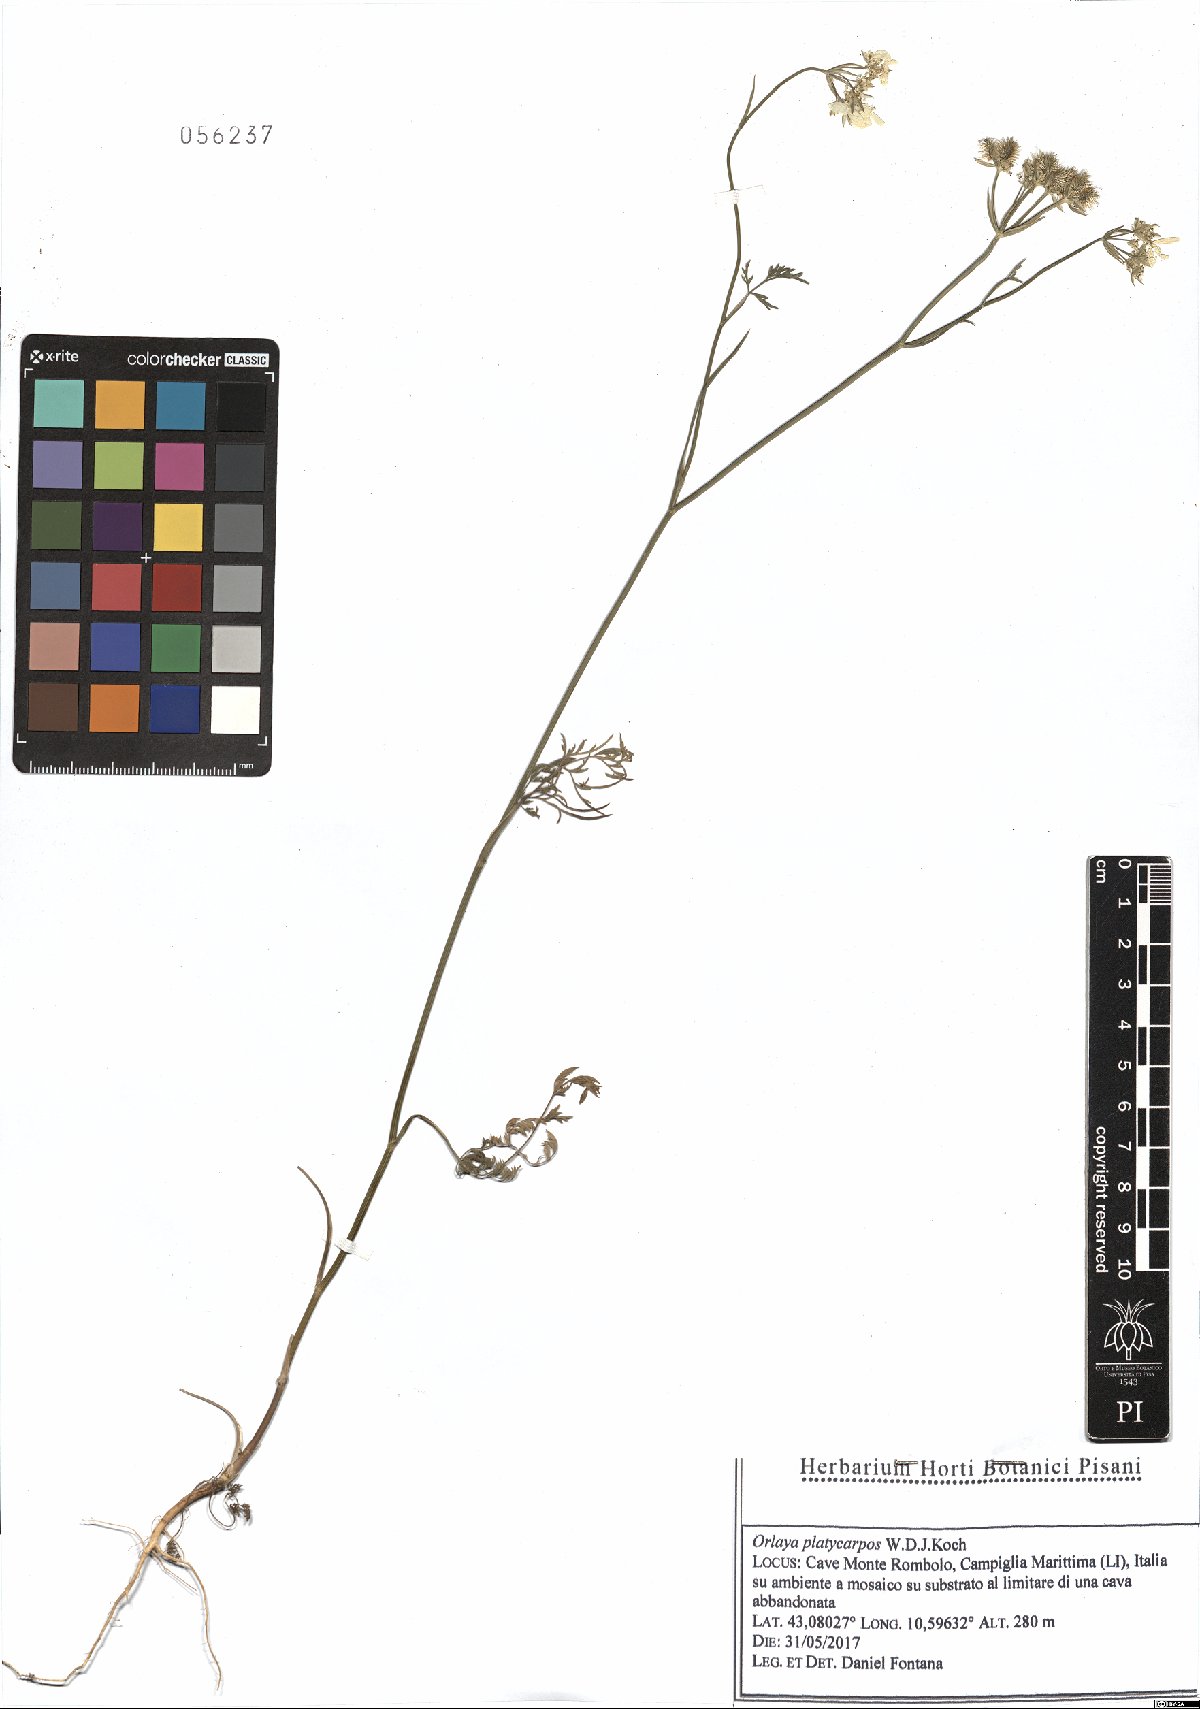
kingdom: Plantae
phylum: Tracheophyta
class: Magnoliopsida
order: Apiales
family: Apiaceae
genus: Orlaya
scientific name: Orlaya daucoides
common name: Flat-fruit orlaya
